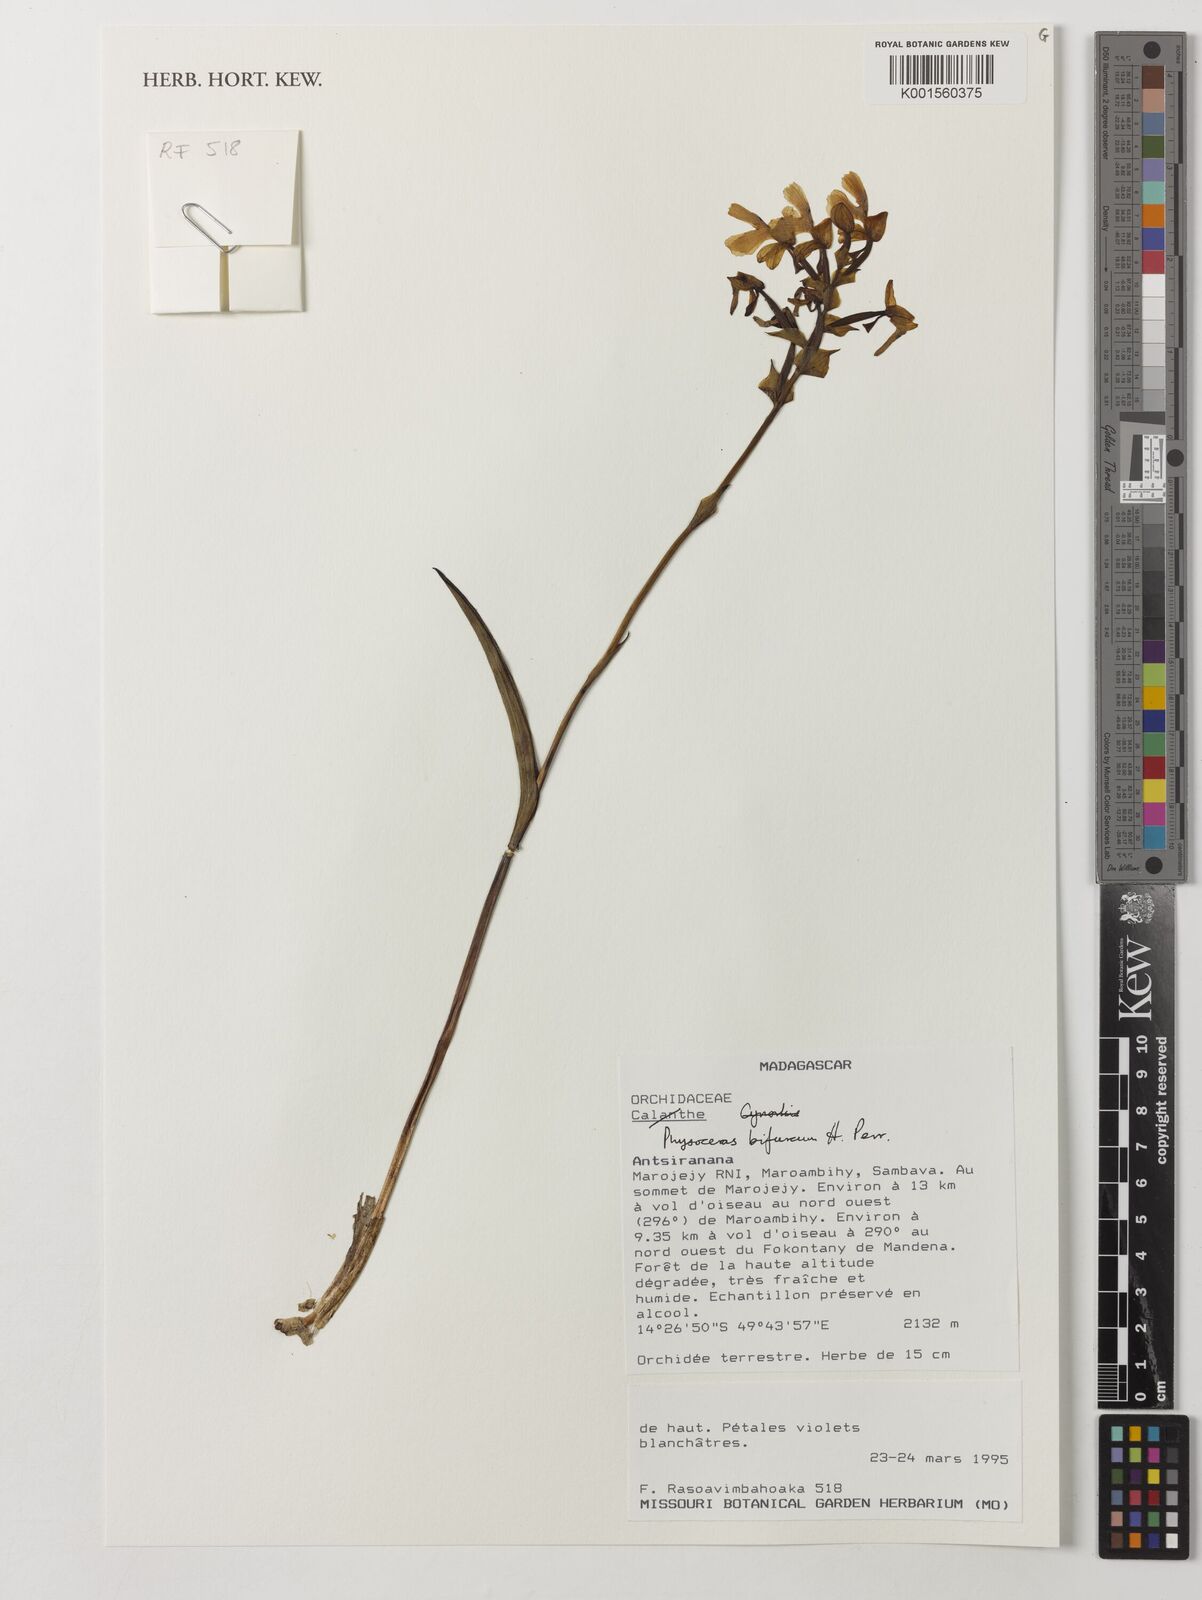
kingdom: Plantae
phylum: Tracheophyta
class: Liliopsida
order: Asparagales
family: Orchidaceae
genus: Cynorkis
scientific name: Cynorkis bifurca
